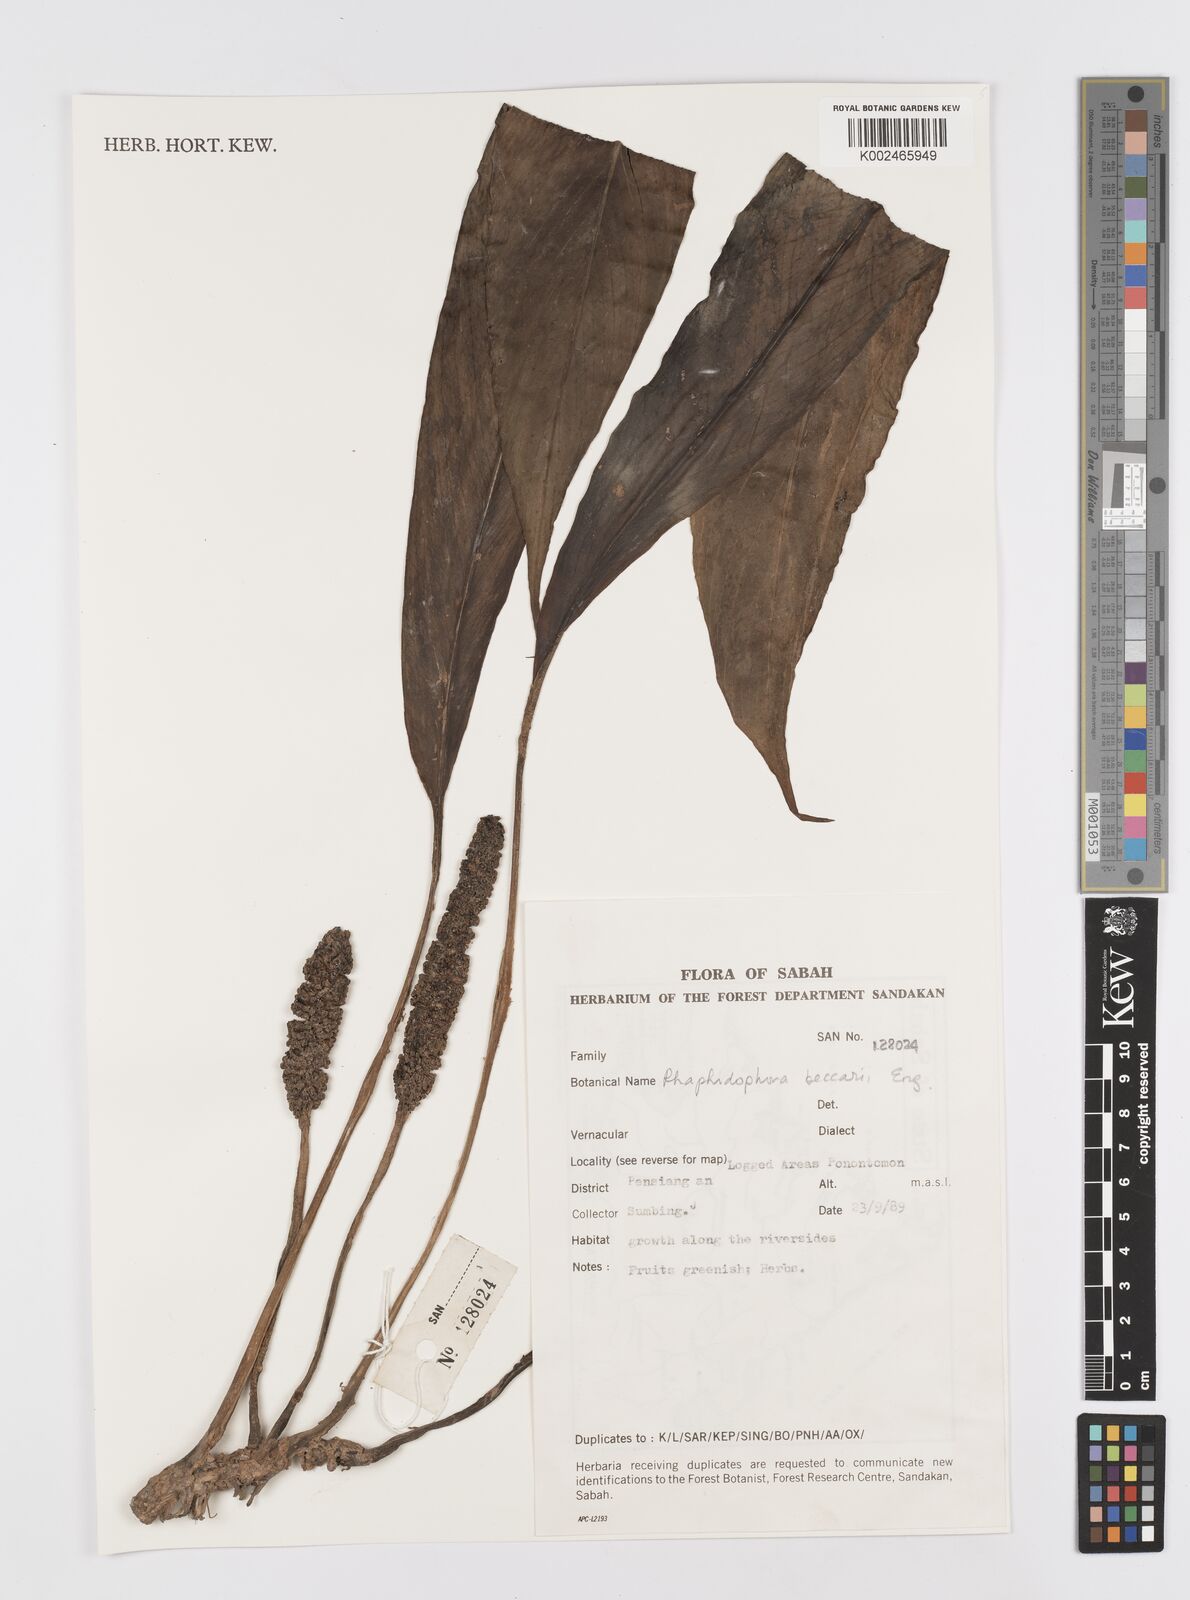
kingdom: Plantae
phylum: Tracheophyta
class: Liliopsida
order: Alismatales
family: Araceae
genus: Rhaphidophora
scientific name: Rhaphidophora beccarii
